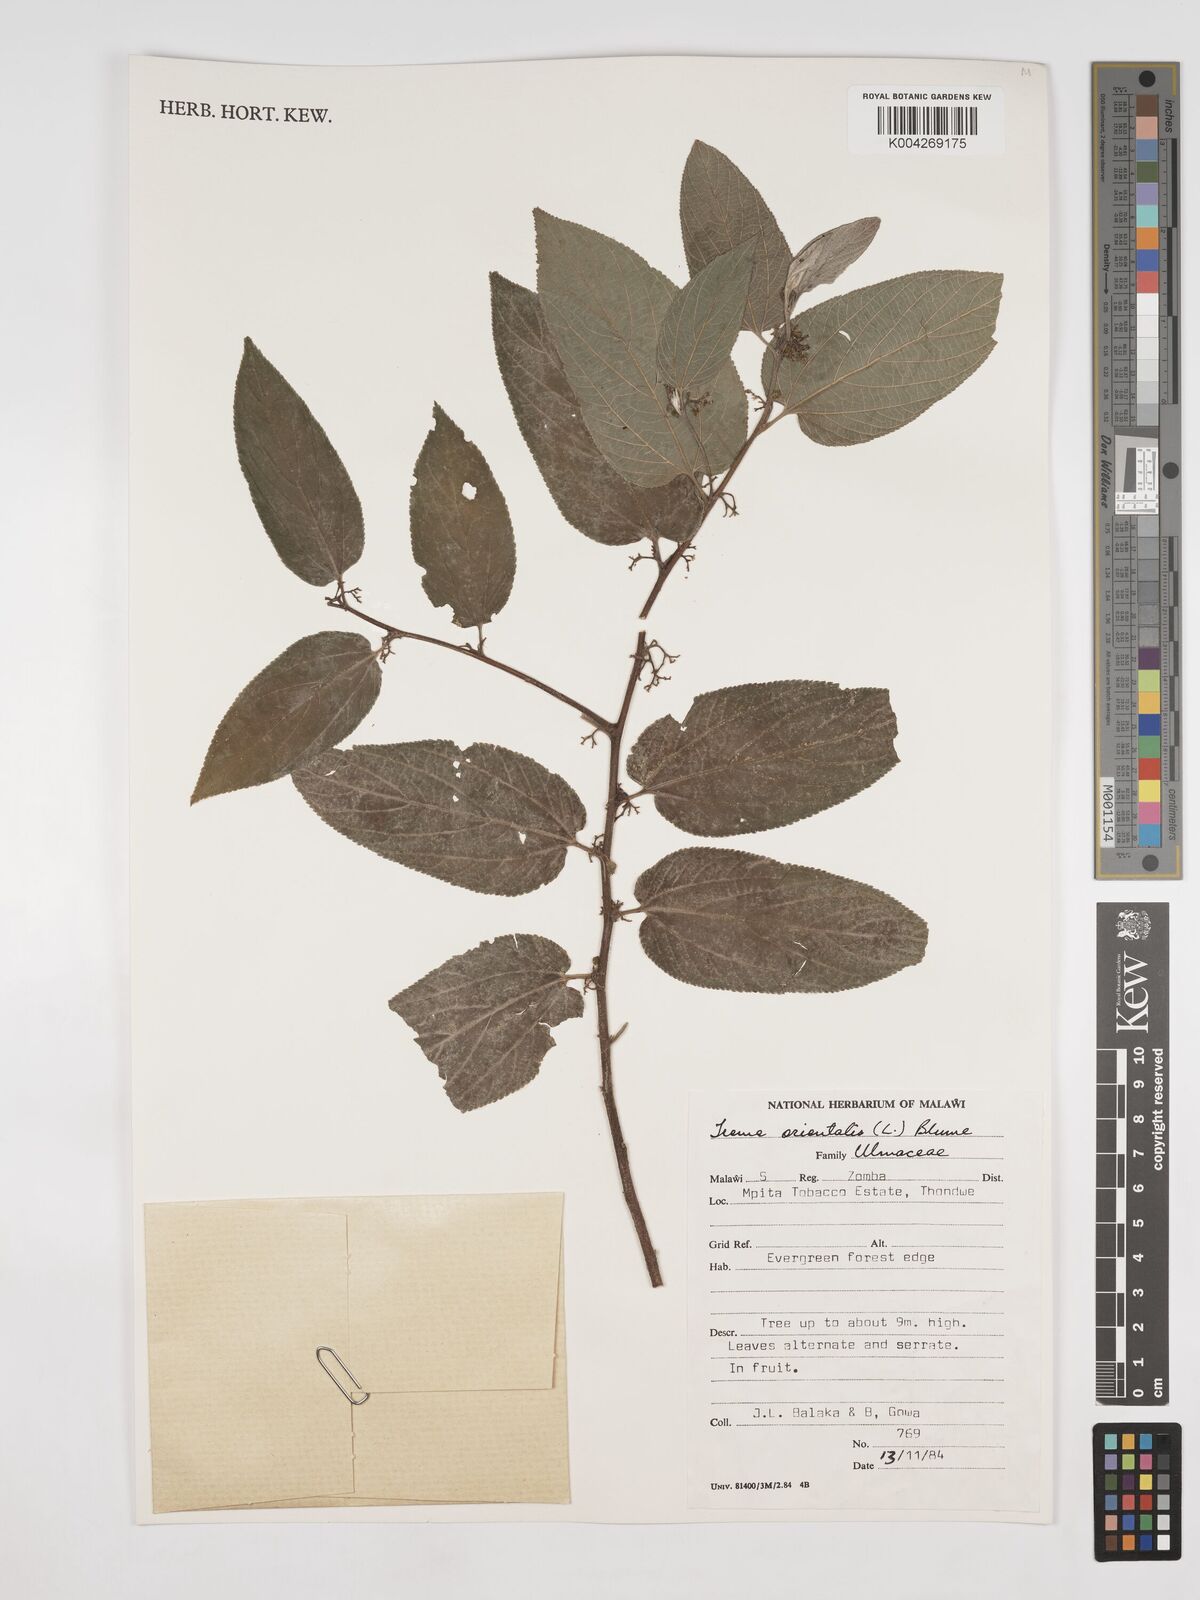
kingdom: Plantae
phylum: Tracheophyta
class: Magnoliopsida
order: Rosales
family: Cannabaceae
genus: Trema
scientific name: Trema orientale
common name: Indian charcoal tree
